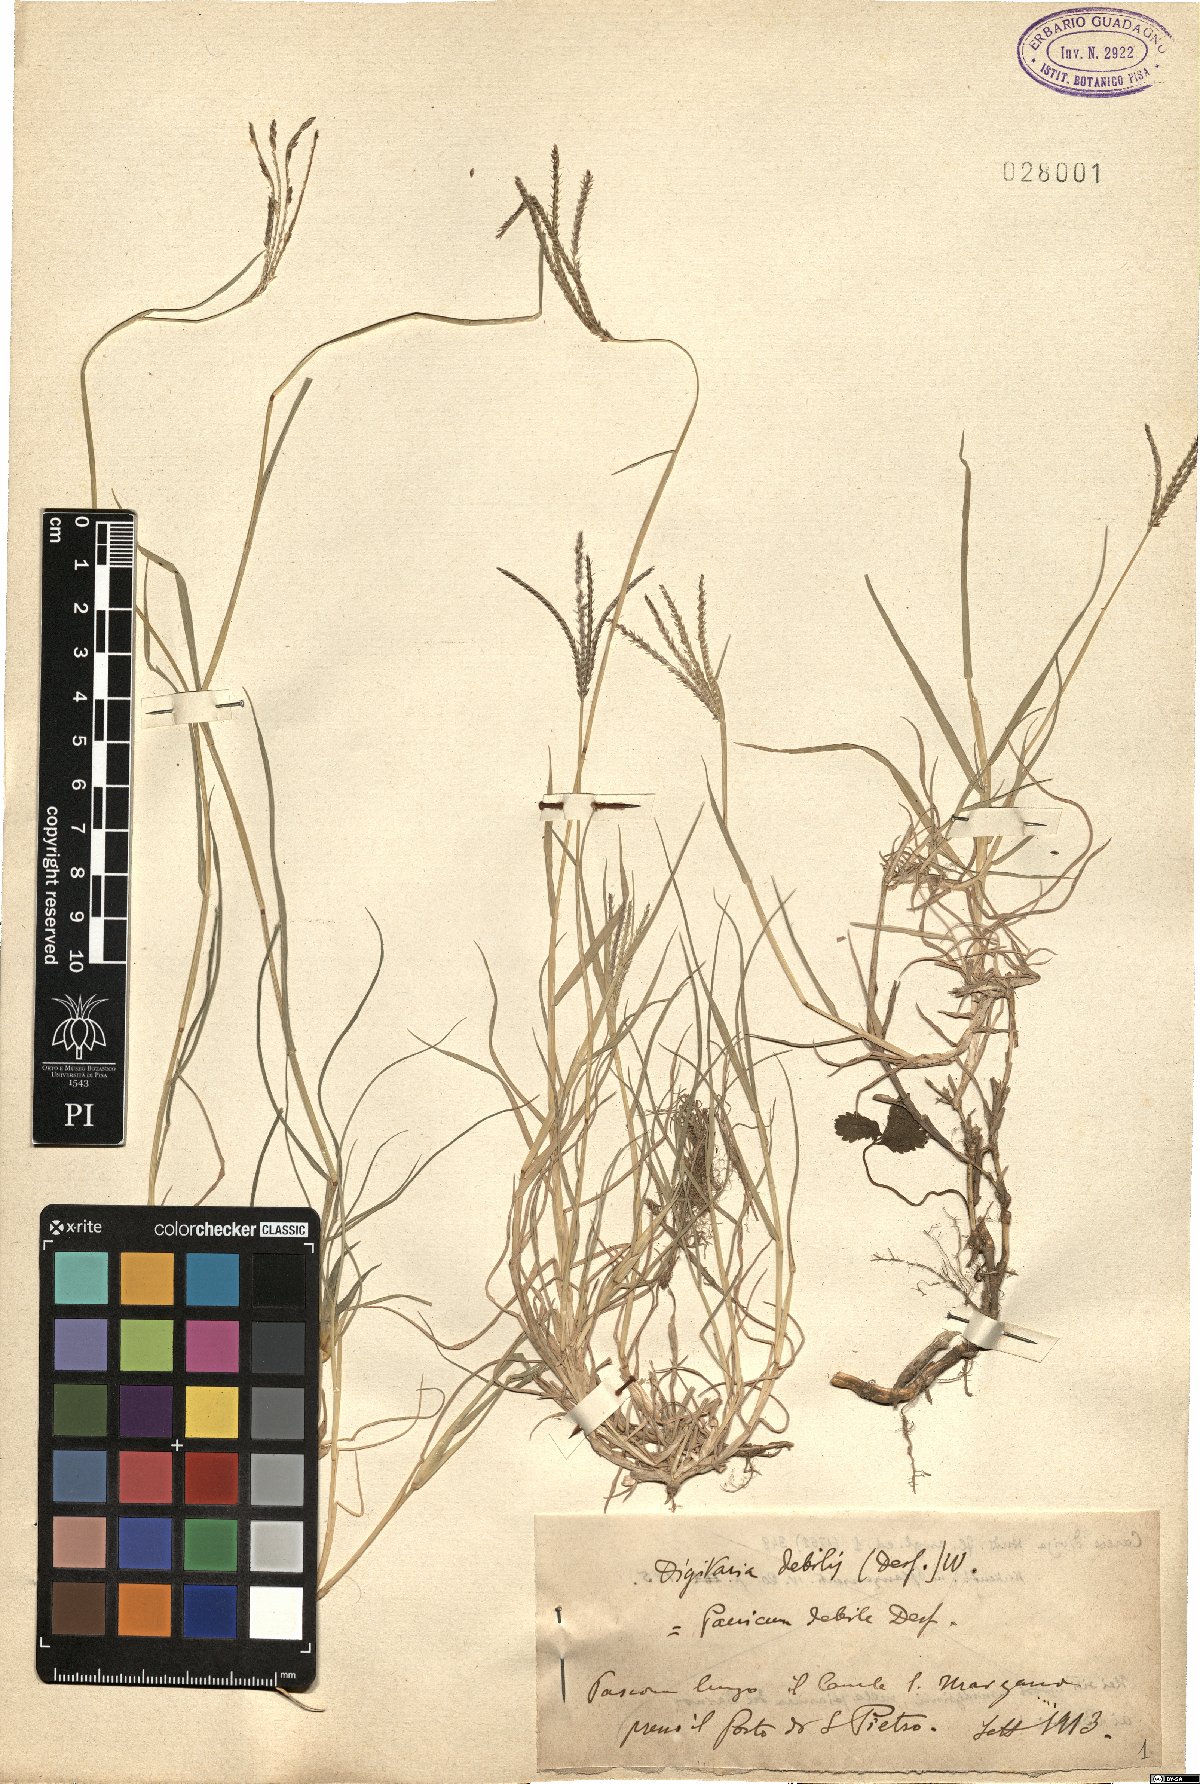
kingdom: Plantae
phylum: Tracheophyta
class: Liliopsida
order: Poales
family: Poaceae
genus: Digitaria
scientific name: Digitaria debilis
